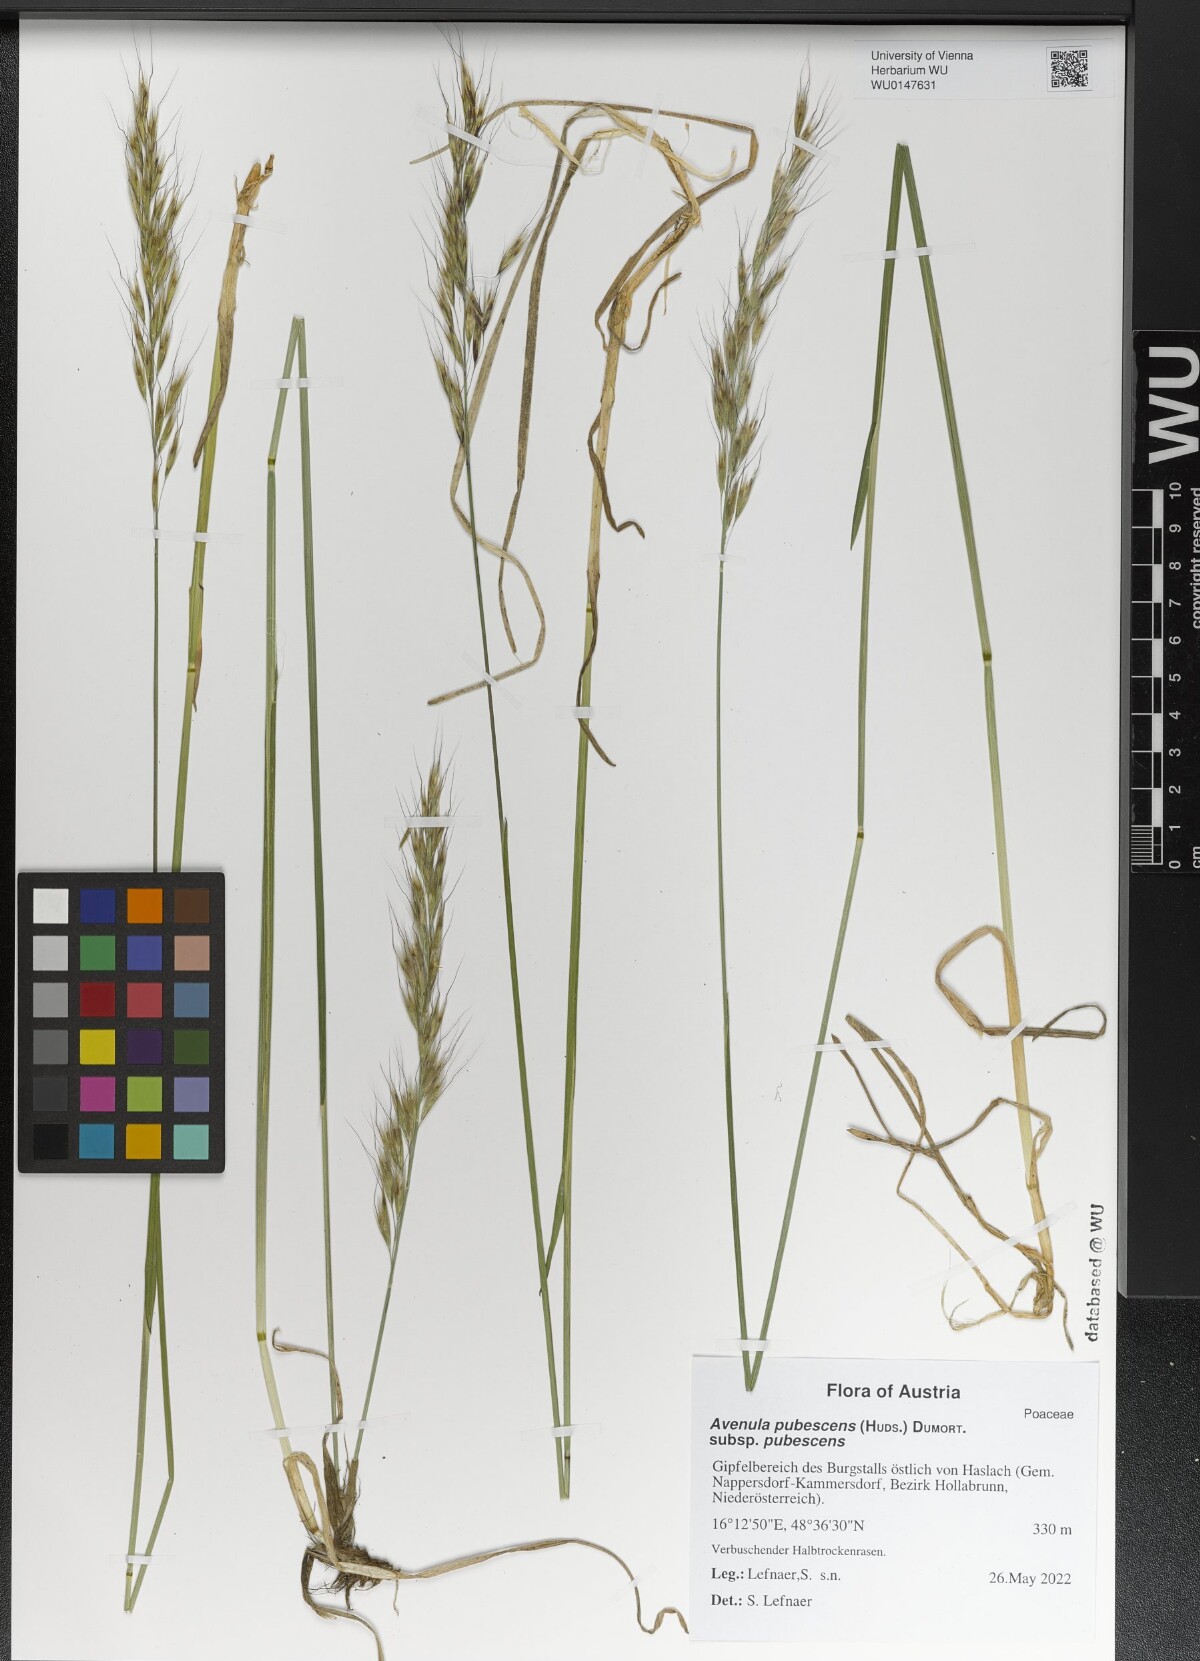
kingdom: Plantae
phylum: Tracheophyta
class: Liliopsida
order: Poales
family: Poaceae
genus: Avenula
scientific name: Avenula pubescens
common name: Downy alpine oatgrass
